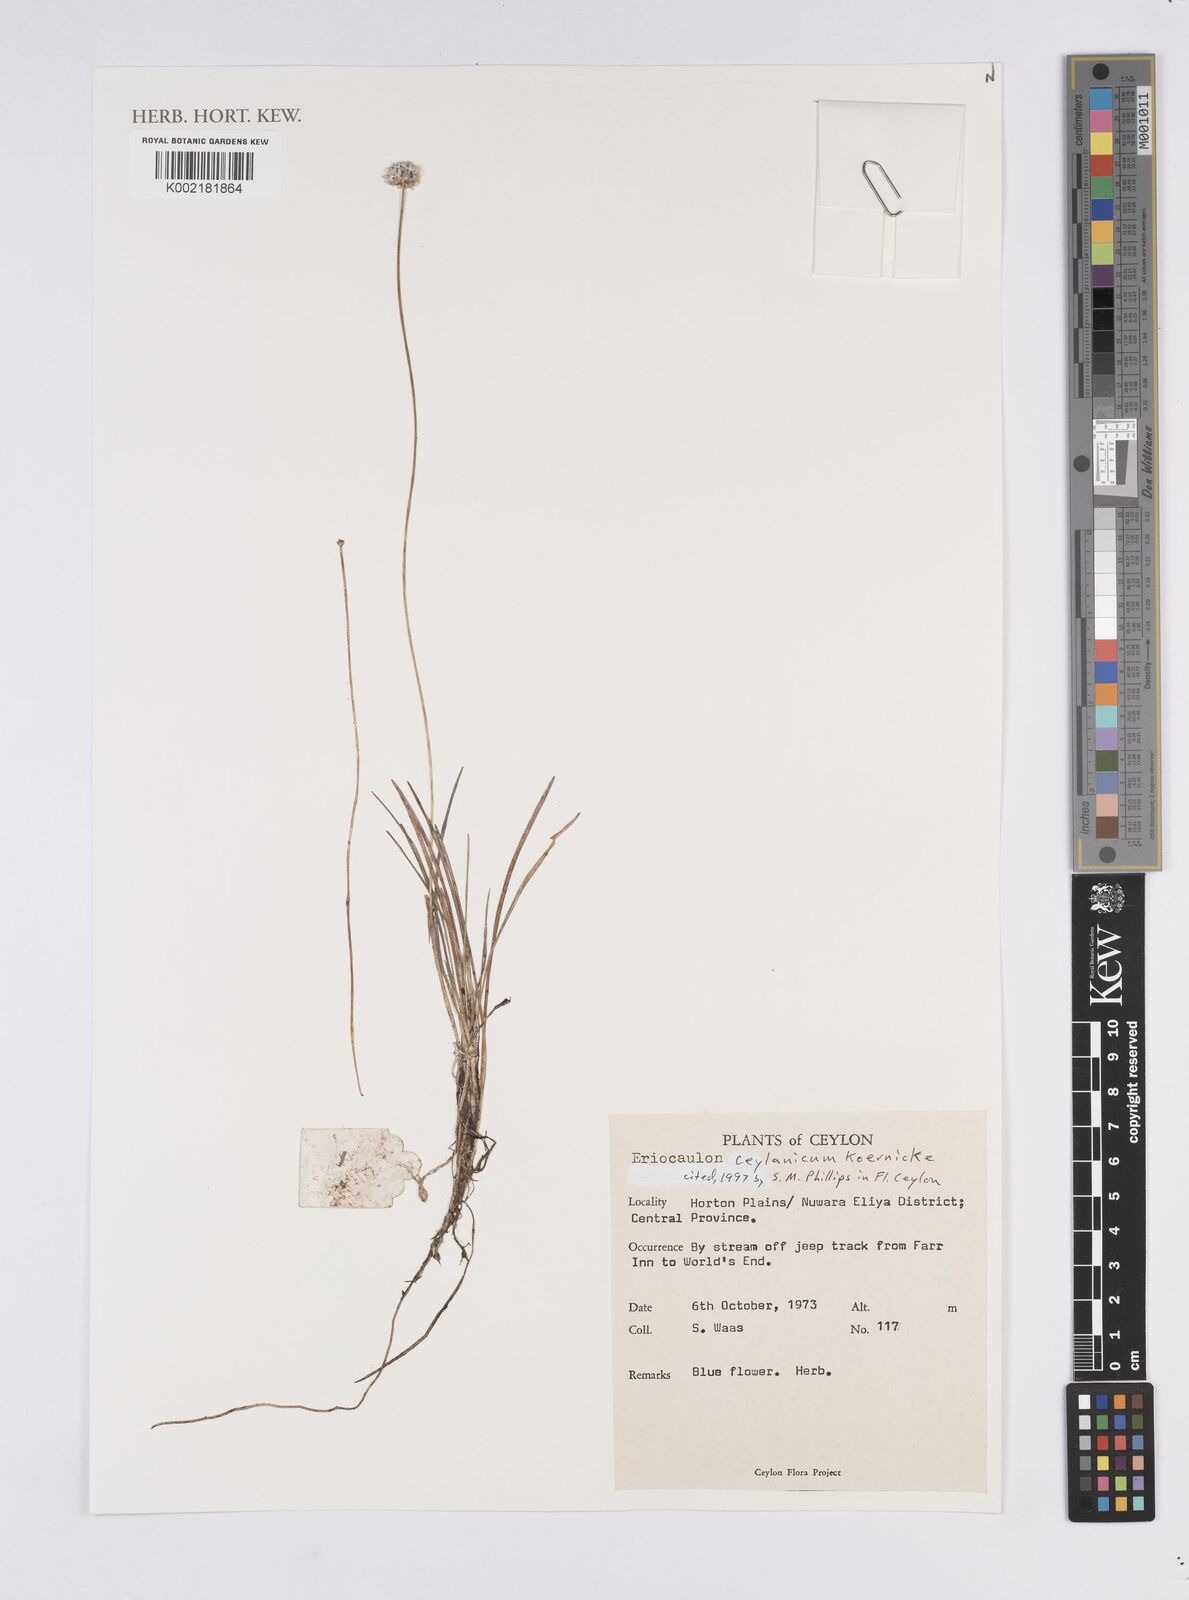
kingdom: Plantae
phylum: Tracheophyta
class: Liliopsida
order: Poales
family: Eriocaulaceae
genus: Eriocaulon
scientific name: Eriocaulon ceylanicum
